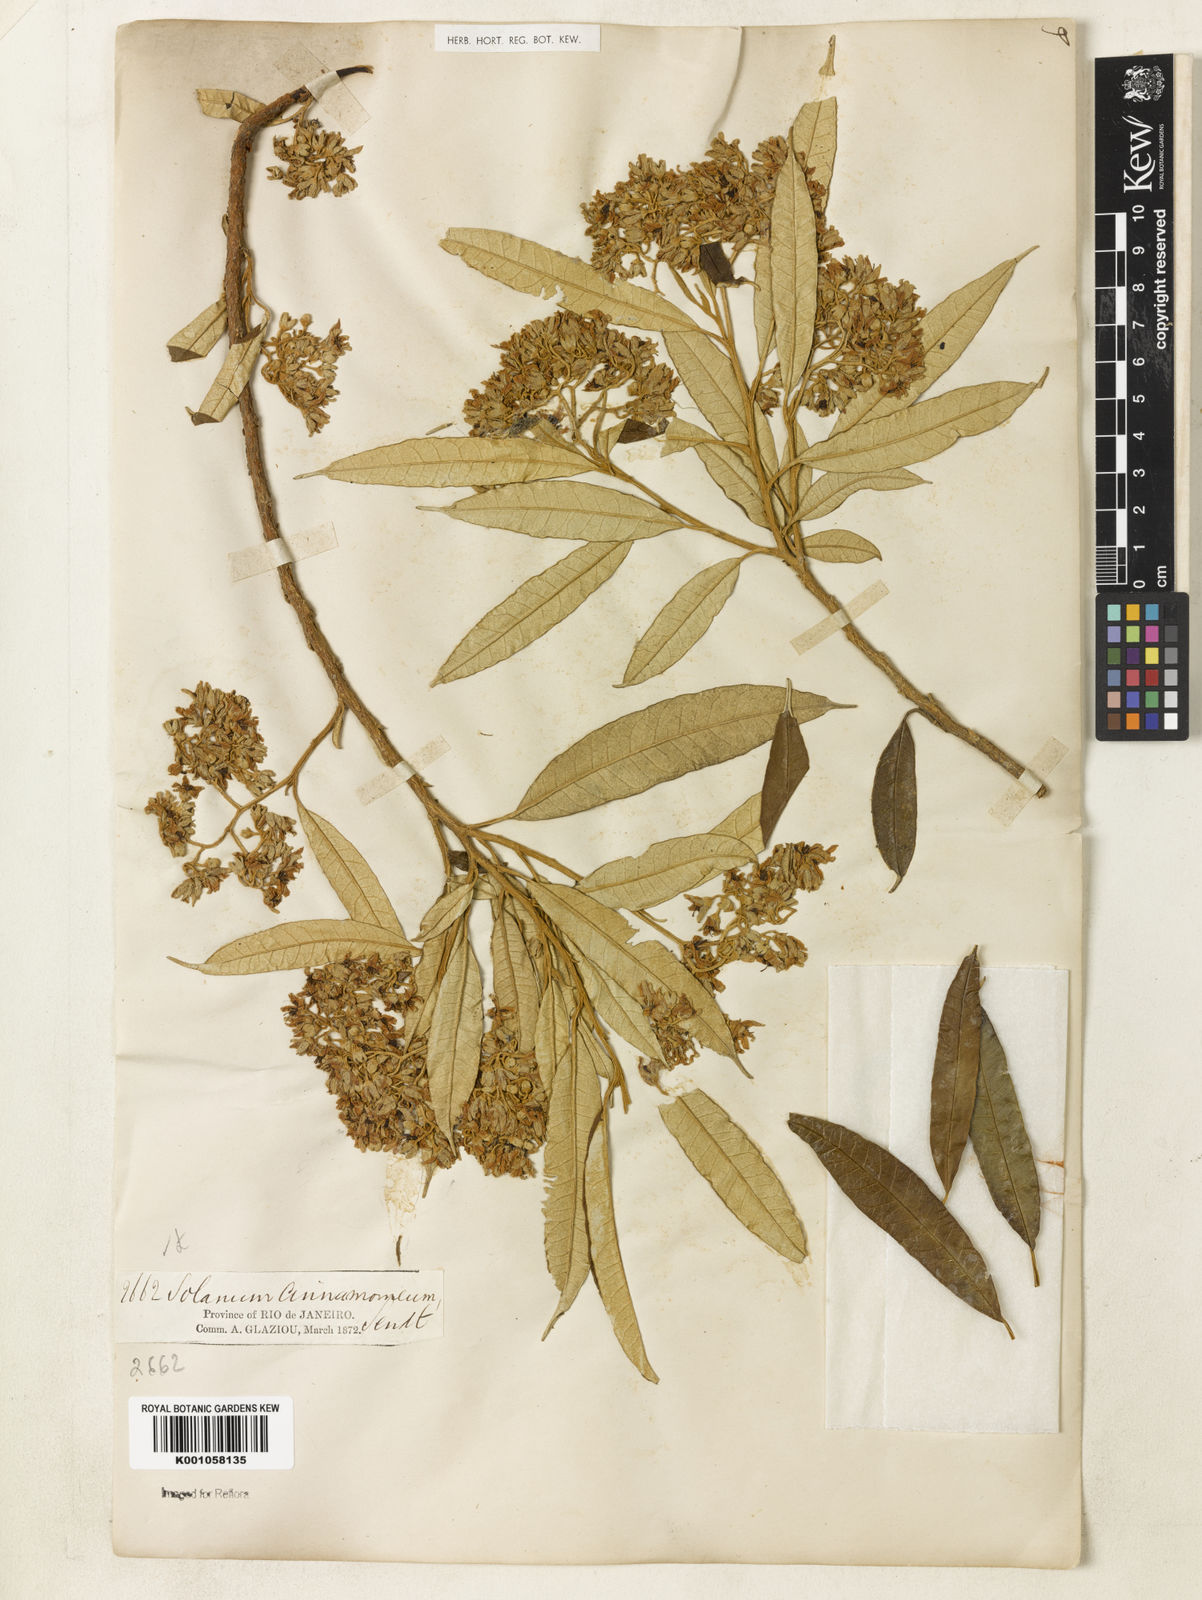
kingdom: Plantae
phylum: Tracheophyta
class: Magnoliopsida
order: Solanales
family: Solanaceae
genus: Solanum
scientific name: Solanum cinnamomeum
